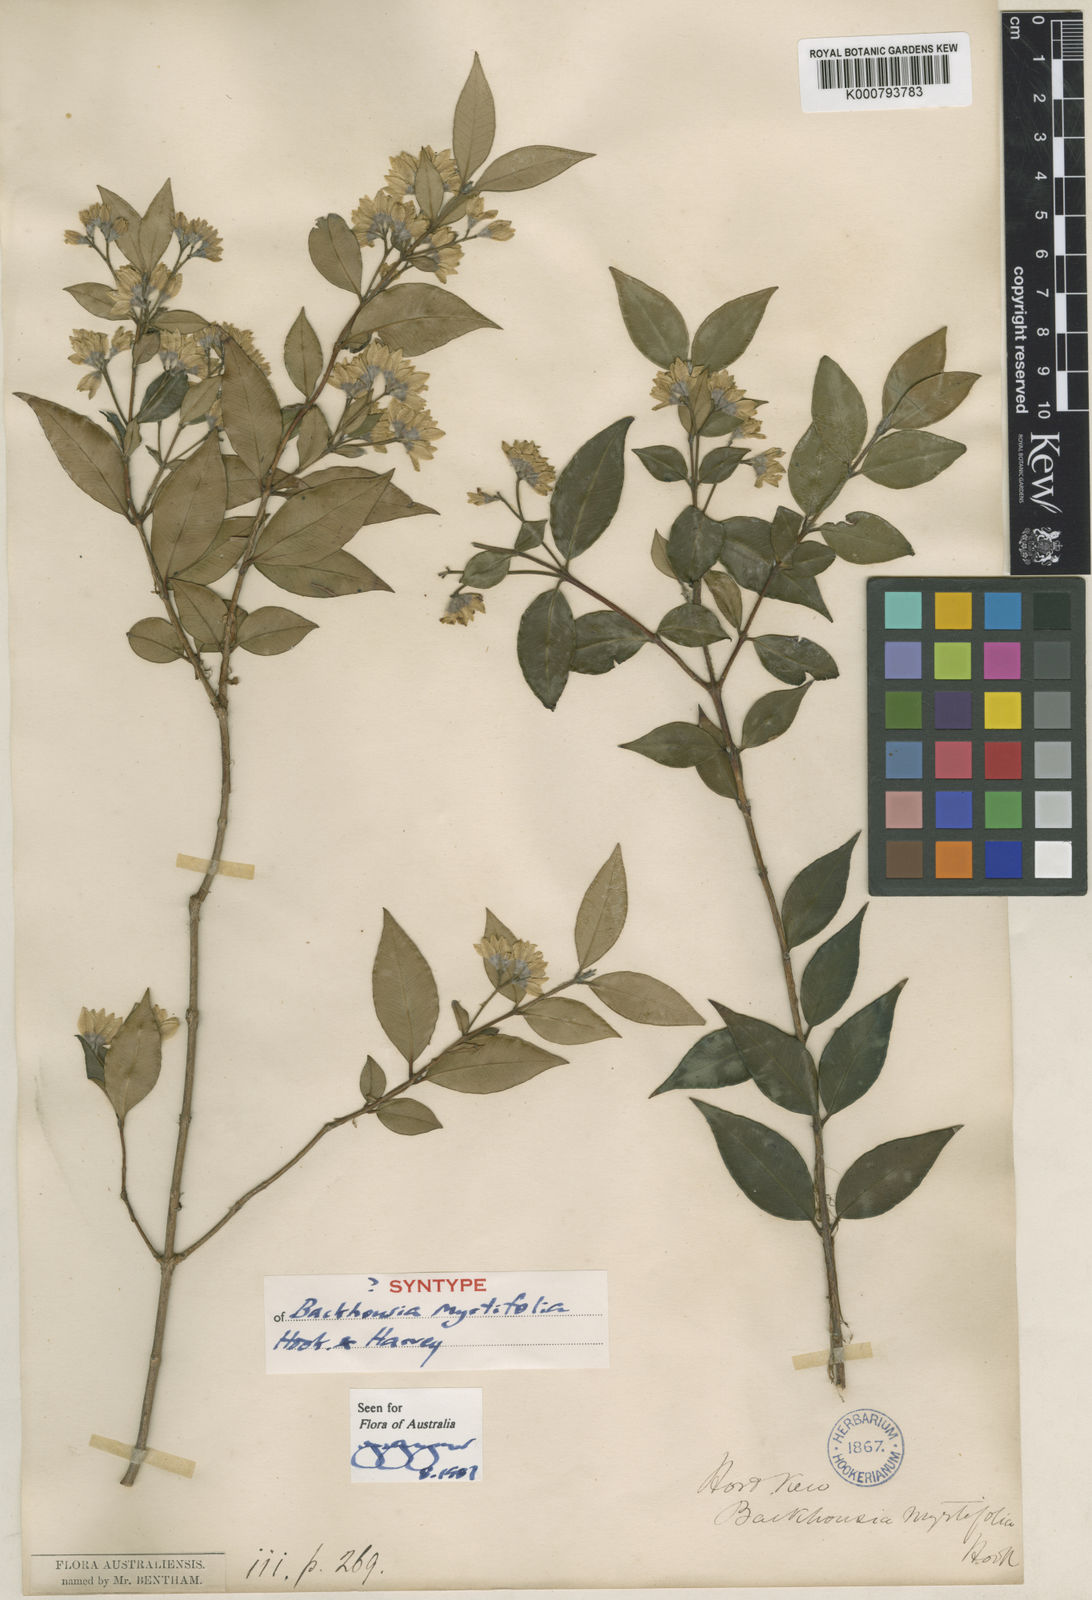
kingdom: Plantae
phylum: Tracheophyta
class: Magnoliopsida
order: Myrtales
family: Myrtaceae
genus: Backhousia
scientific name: Backhousia myrtifolia
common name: Carrol
